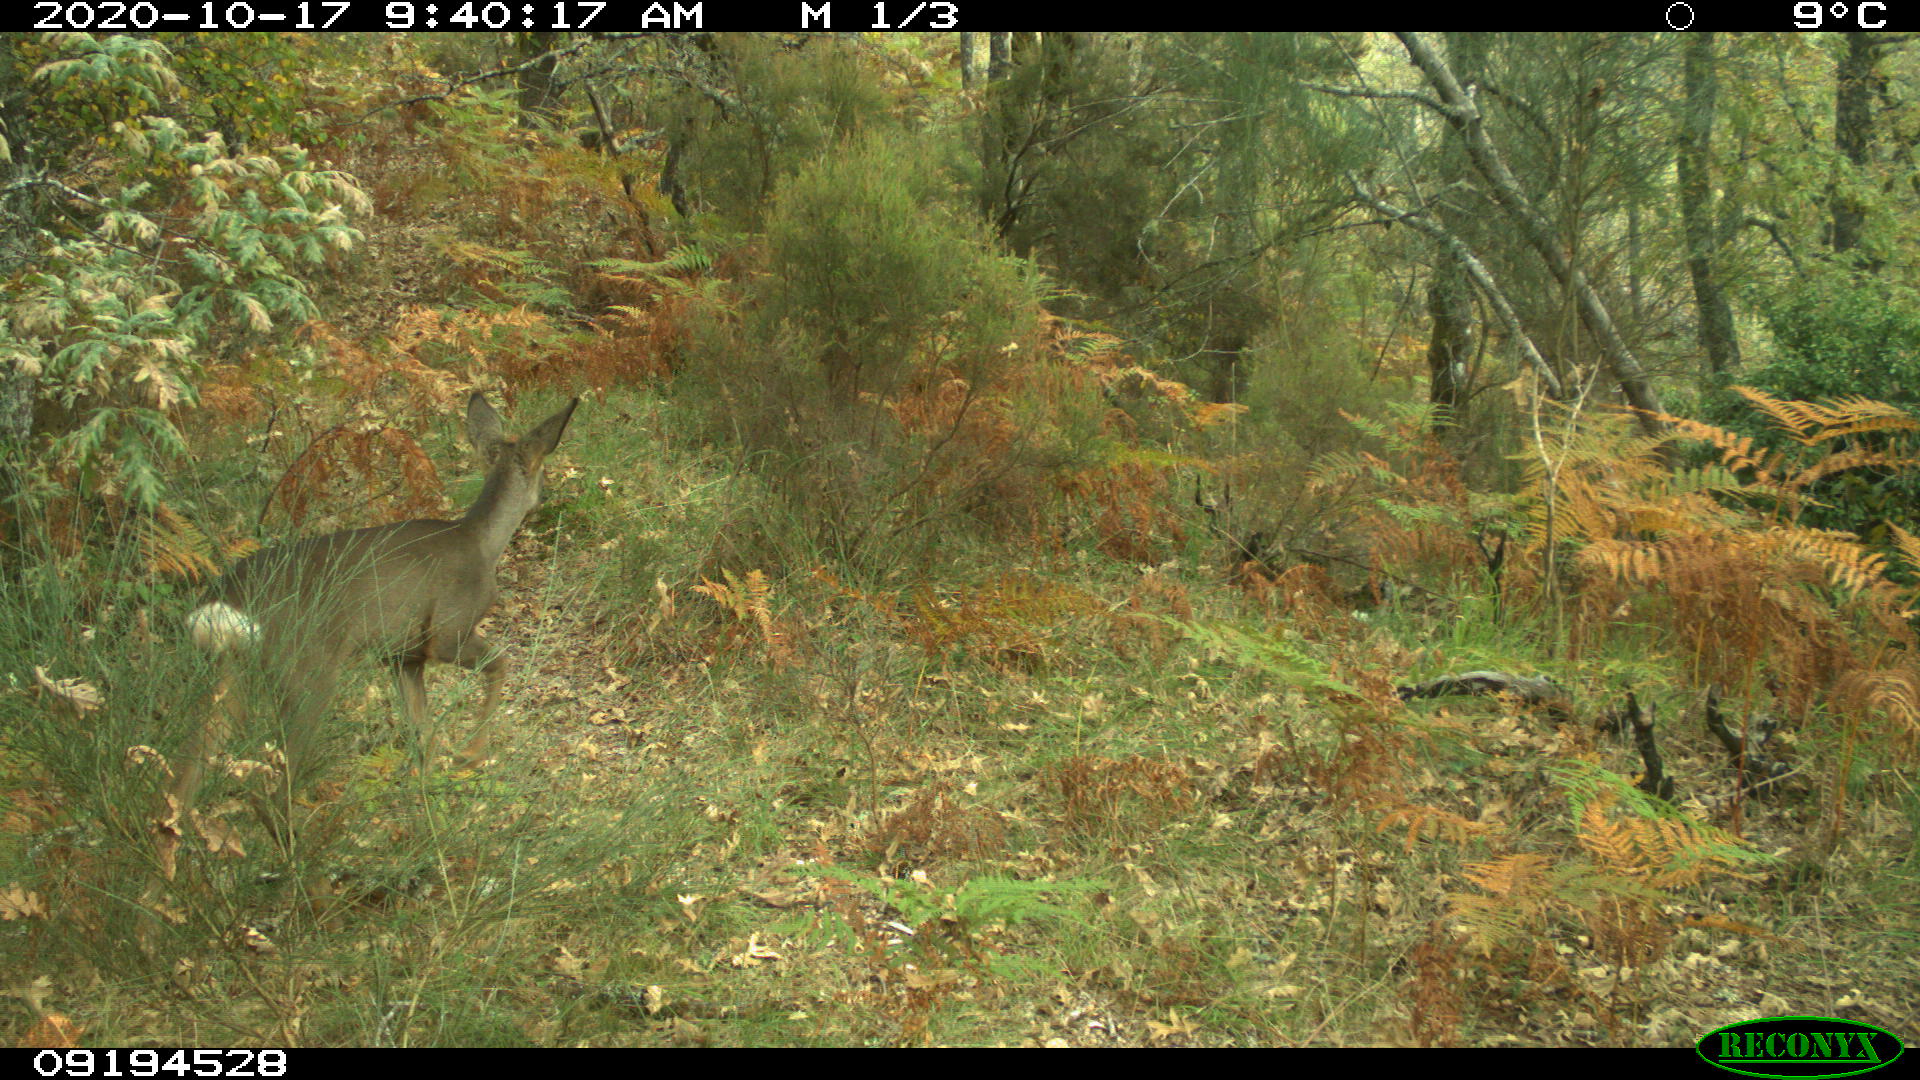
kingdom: Animalia
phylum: Chordata
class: Mammalia
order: Artiodactyla
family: Cervidae
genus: Capreolus
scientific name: Capreolus capreolus
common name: Western roe deer
